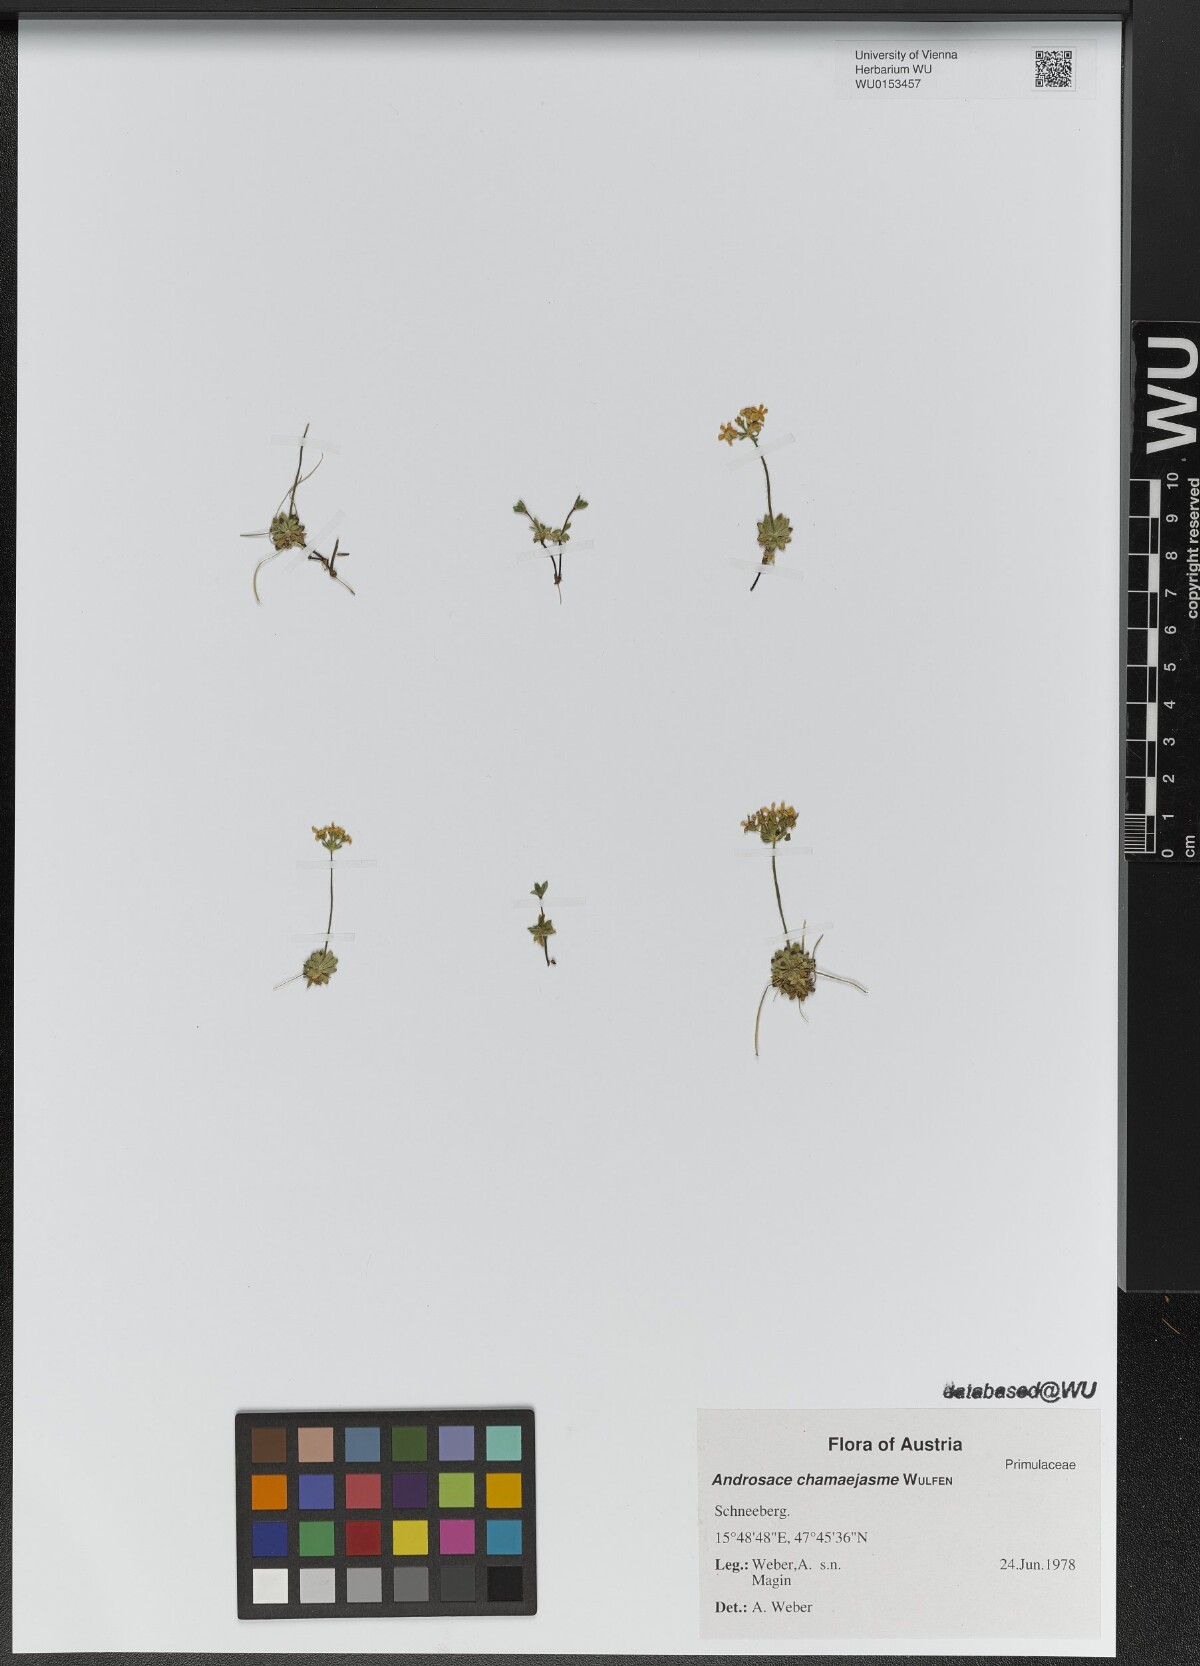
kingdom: Plantae
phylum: Tracheophyta
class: Magnoliopsida
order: Ericales
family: Primulaceae
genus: Androsace
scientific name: Androsace chamaejasme
